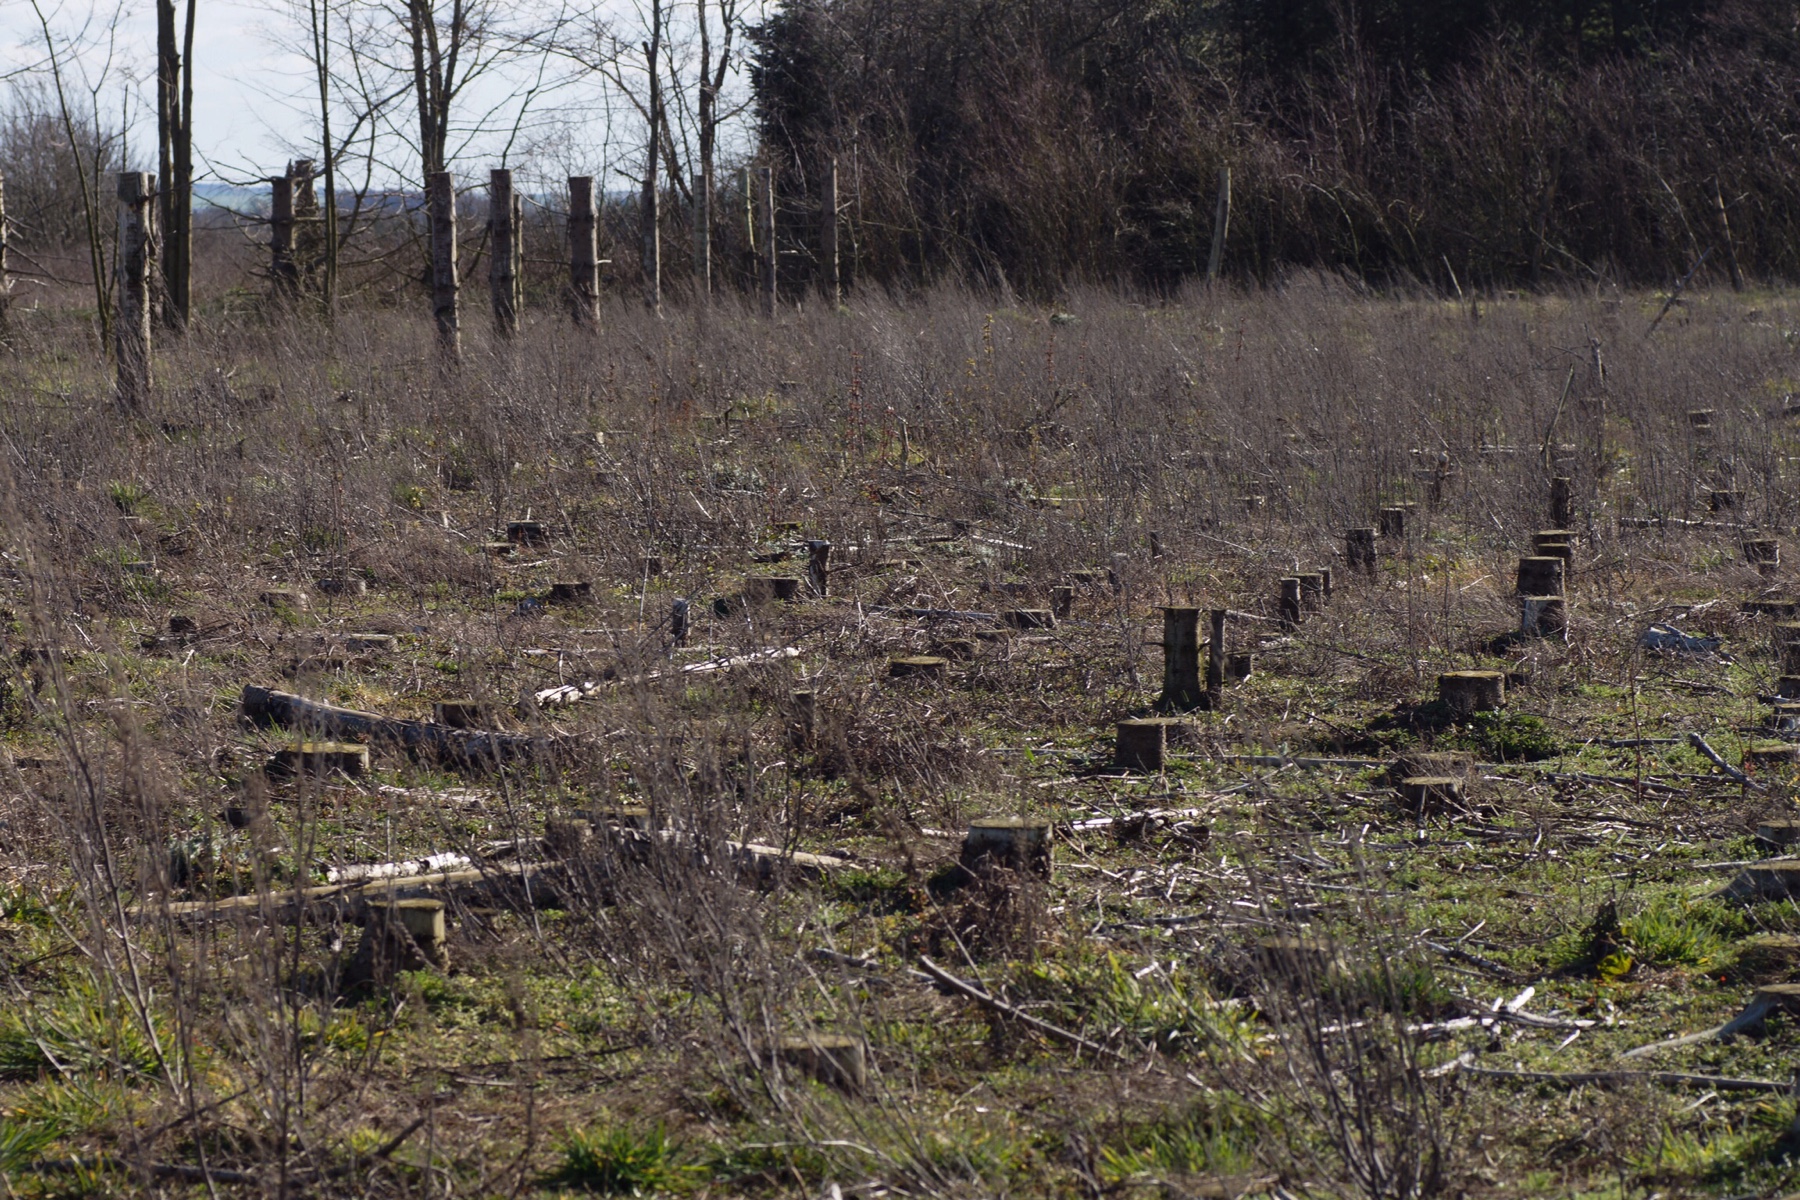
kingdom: Fungi
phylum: Ascomycota
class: Pezizomycetes
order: Pezizales
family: Discinaceae
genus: Gyromitra
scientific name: Gyromitra gigas
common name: kæmpe-stenmorkel
